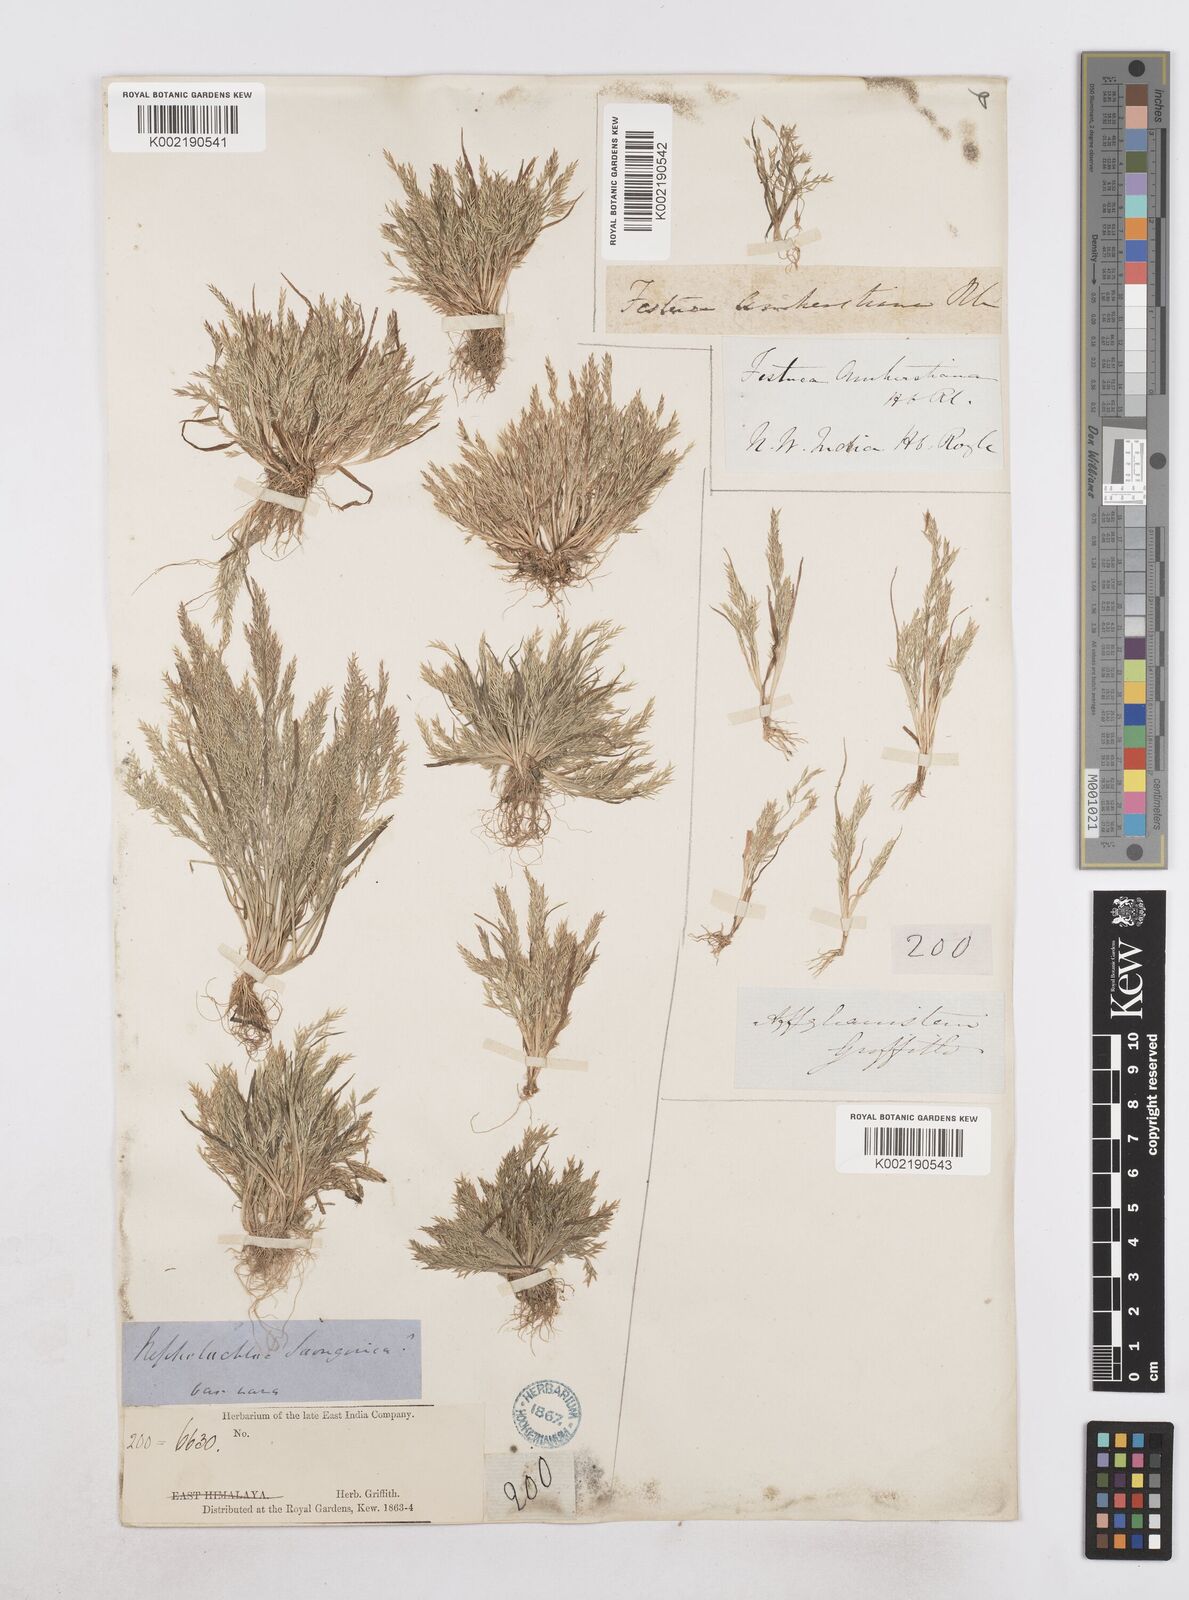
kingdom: Plantae
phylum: Tracheophyta
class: Liliopsida
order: Poales
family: Poaceae
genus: Poa
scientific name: Poa diaphora
